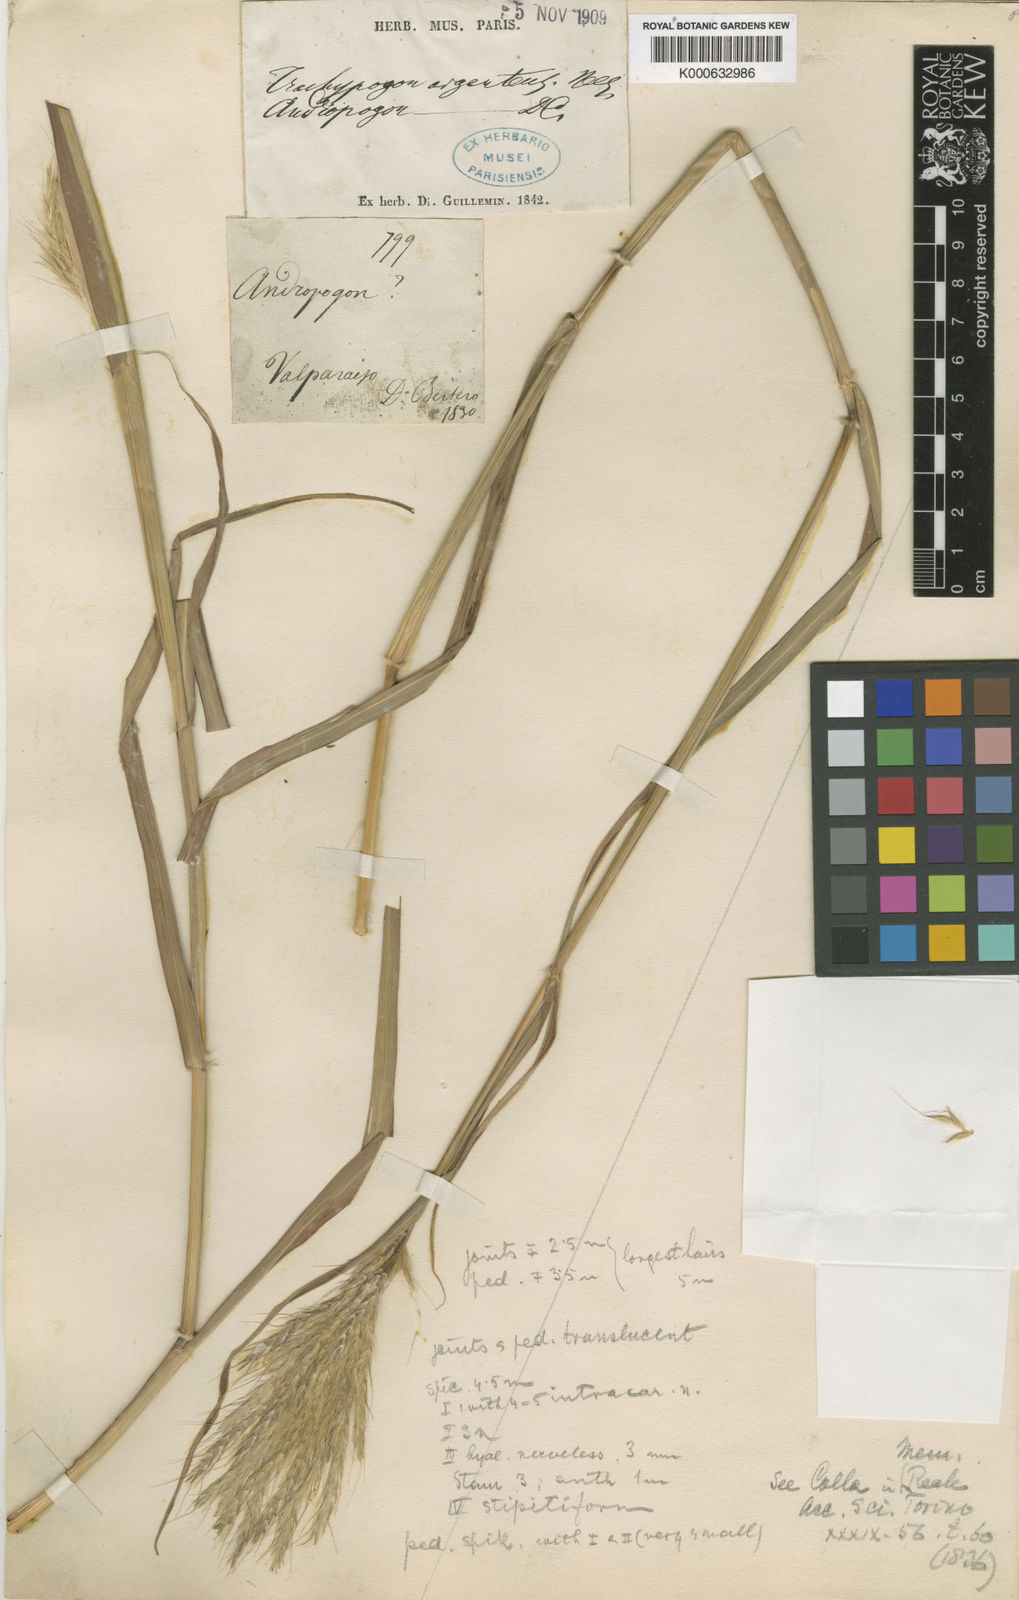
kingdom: Plantae
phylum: Tracheophyta
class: Liliopsida
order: Poales
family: Poaceae
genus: Bothriochloa
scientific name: Bothriochloa saccharoides
